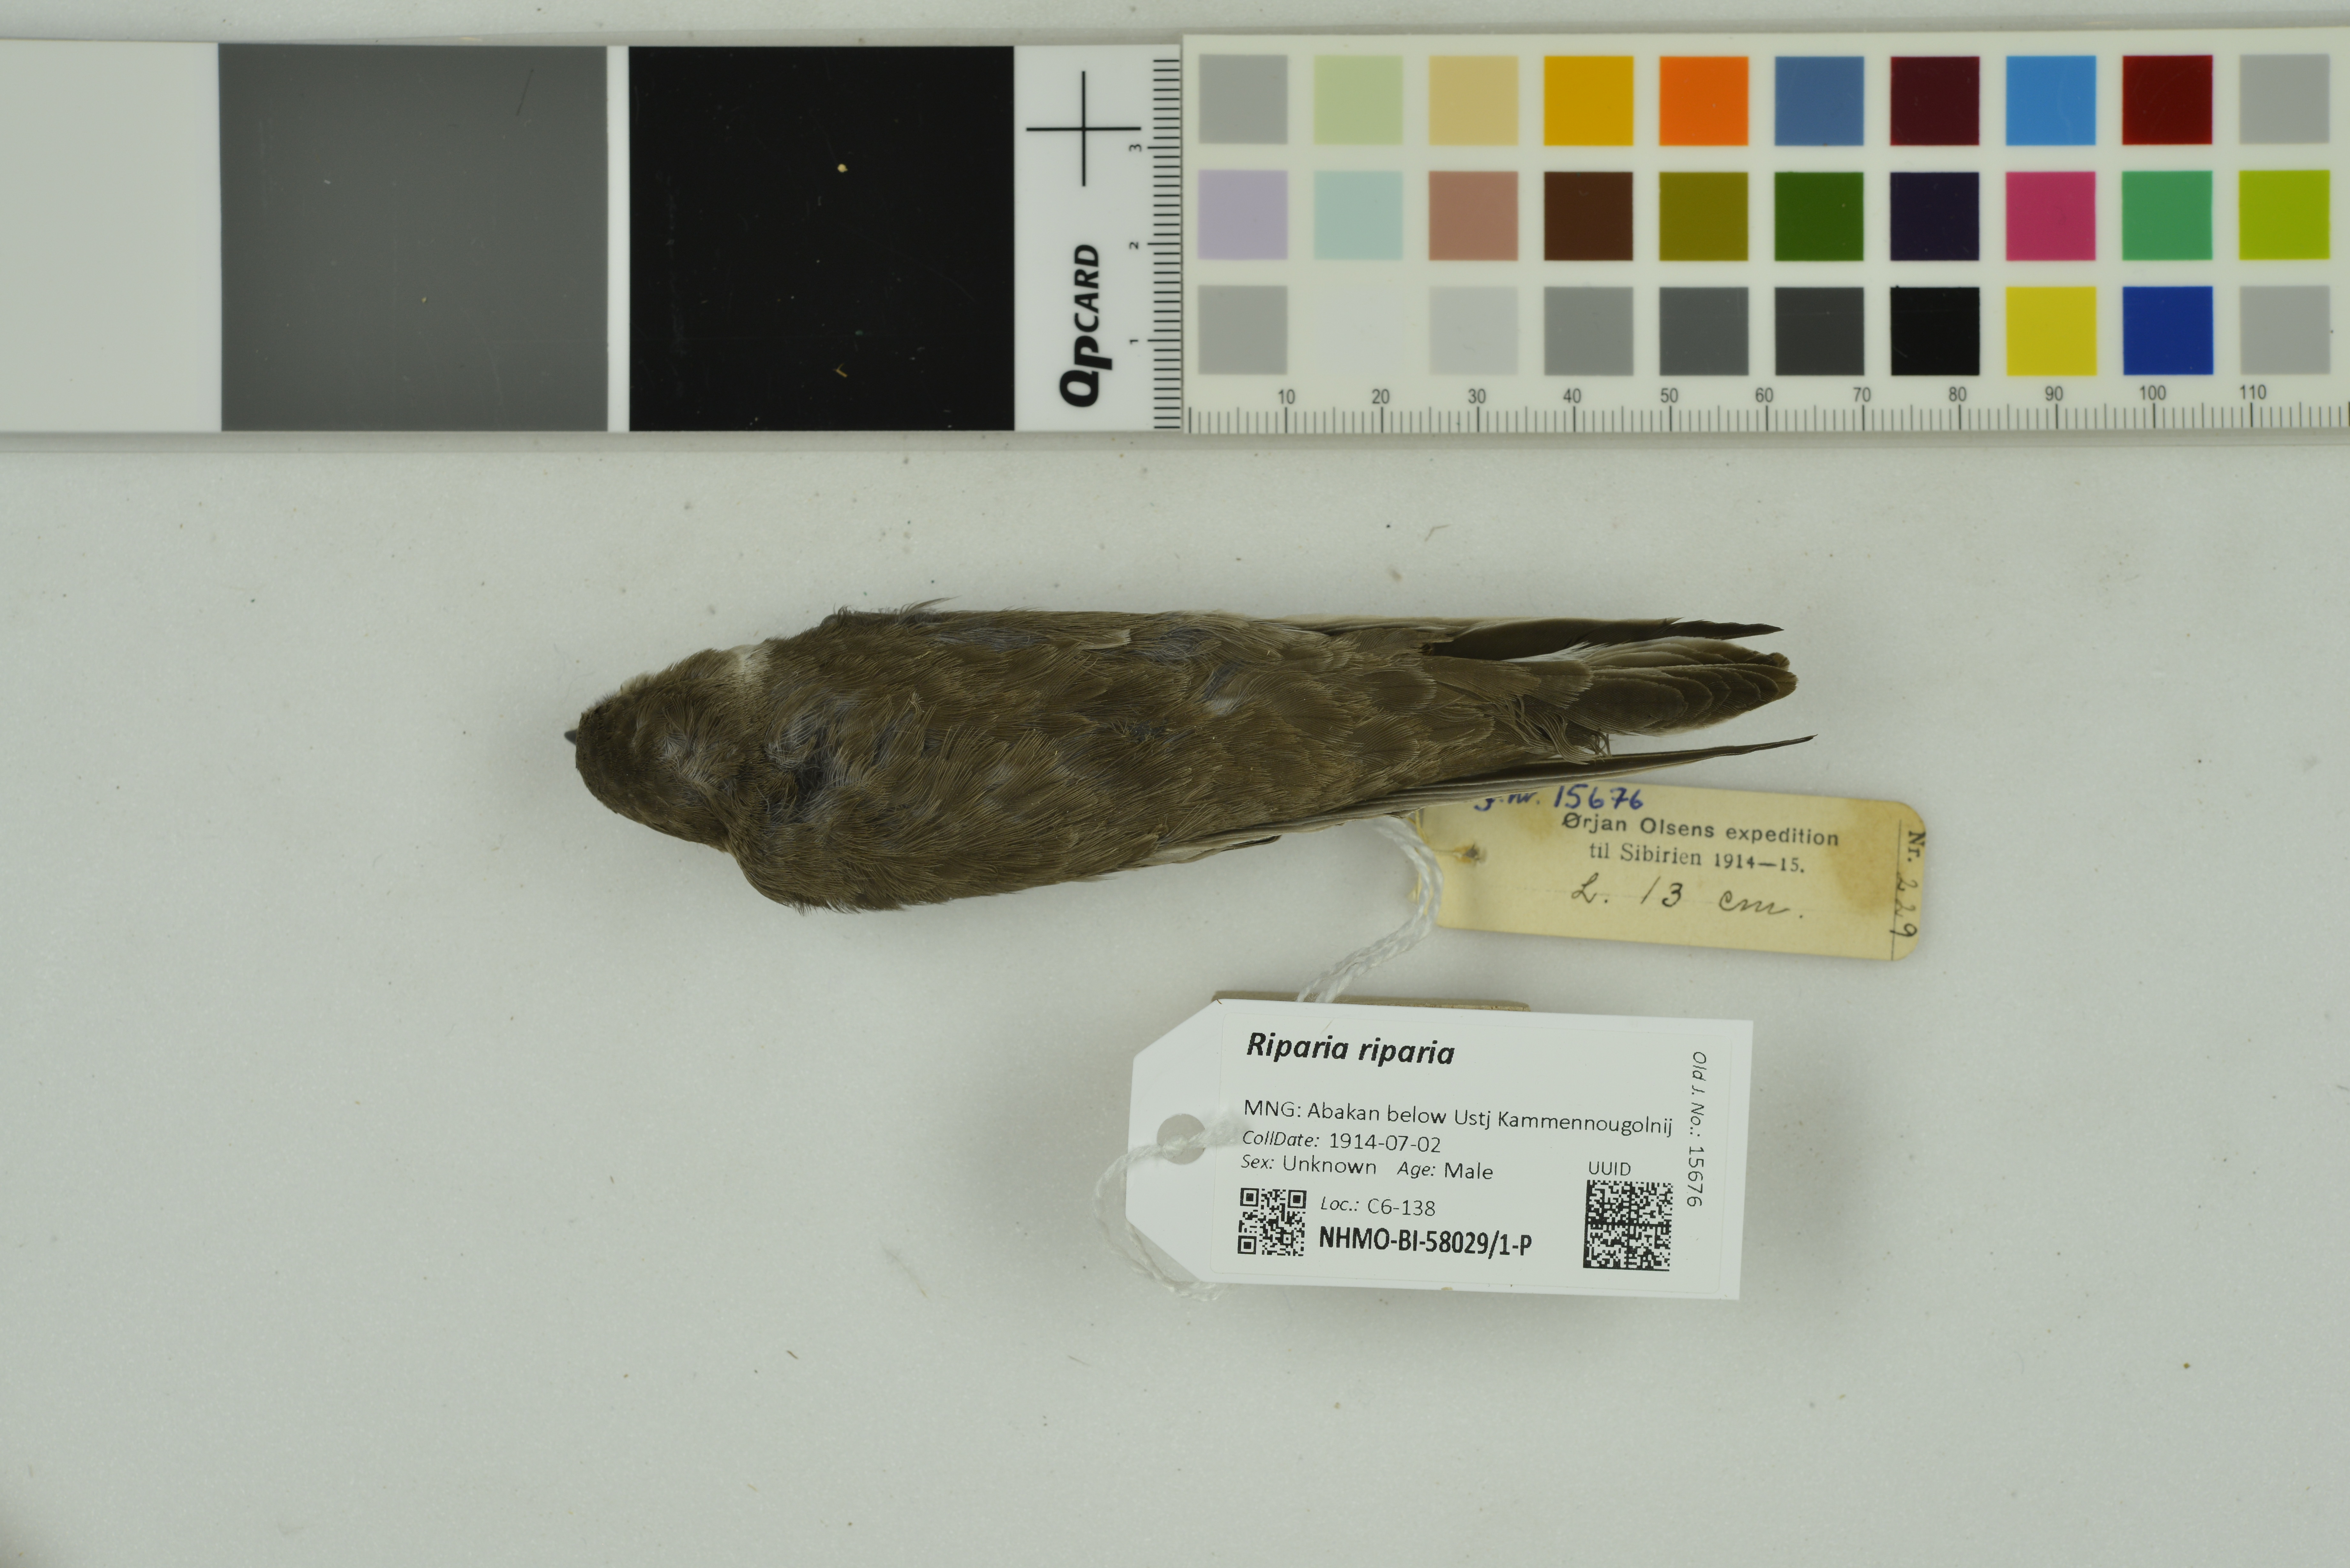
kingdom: Animalia
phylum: Chordata
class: Aves
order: Passeriformes
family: Hirundinidae
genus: Riparia
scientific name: Riparia riparia
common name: Sand martin
